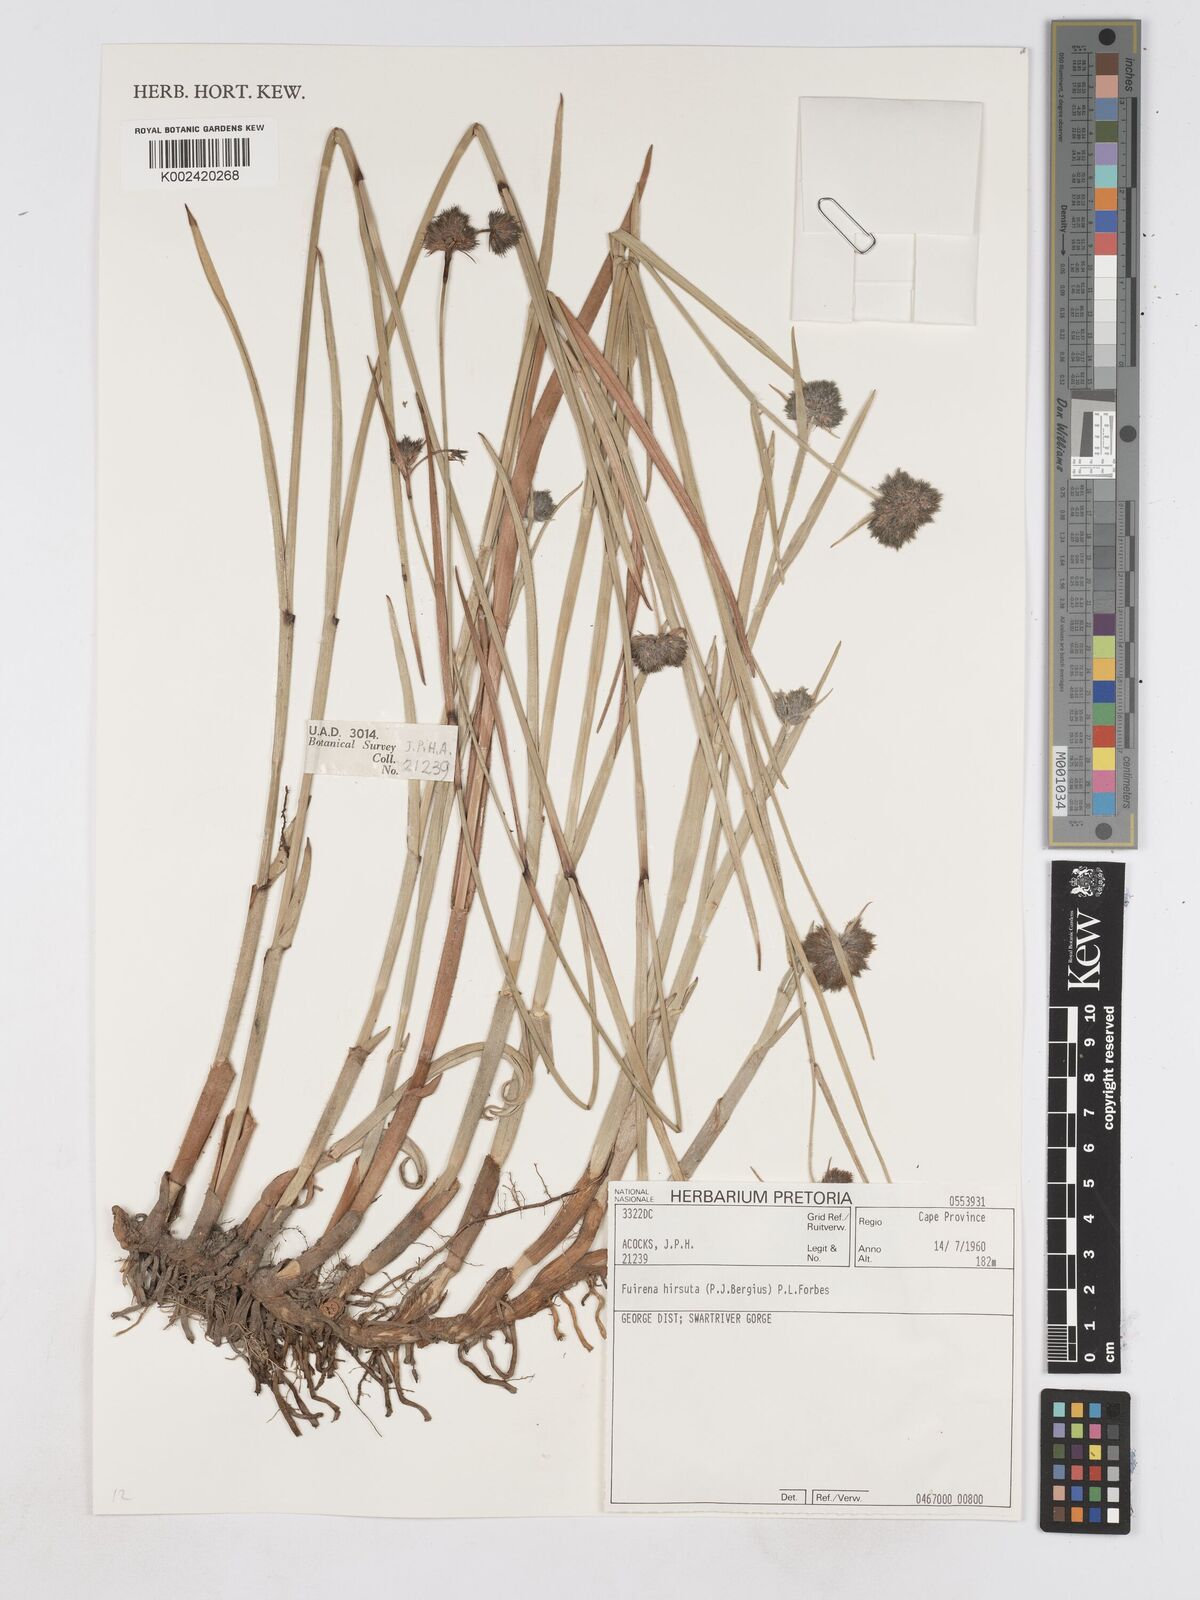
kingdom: Plantae
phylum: Tracheophyta
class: Liliopsida
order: Poales
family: Cyperaceae
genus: Fuirena
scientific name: Fuirena hirsuta
